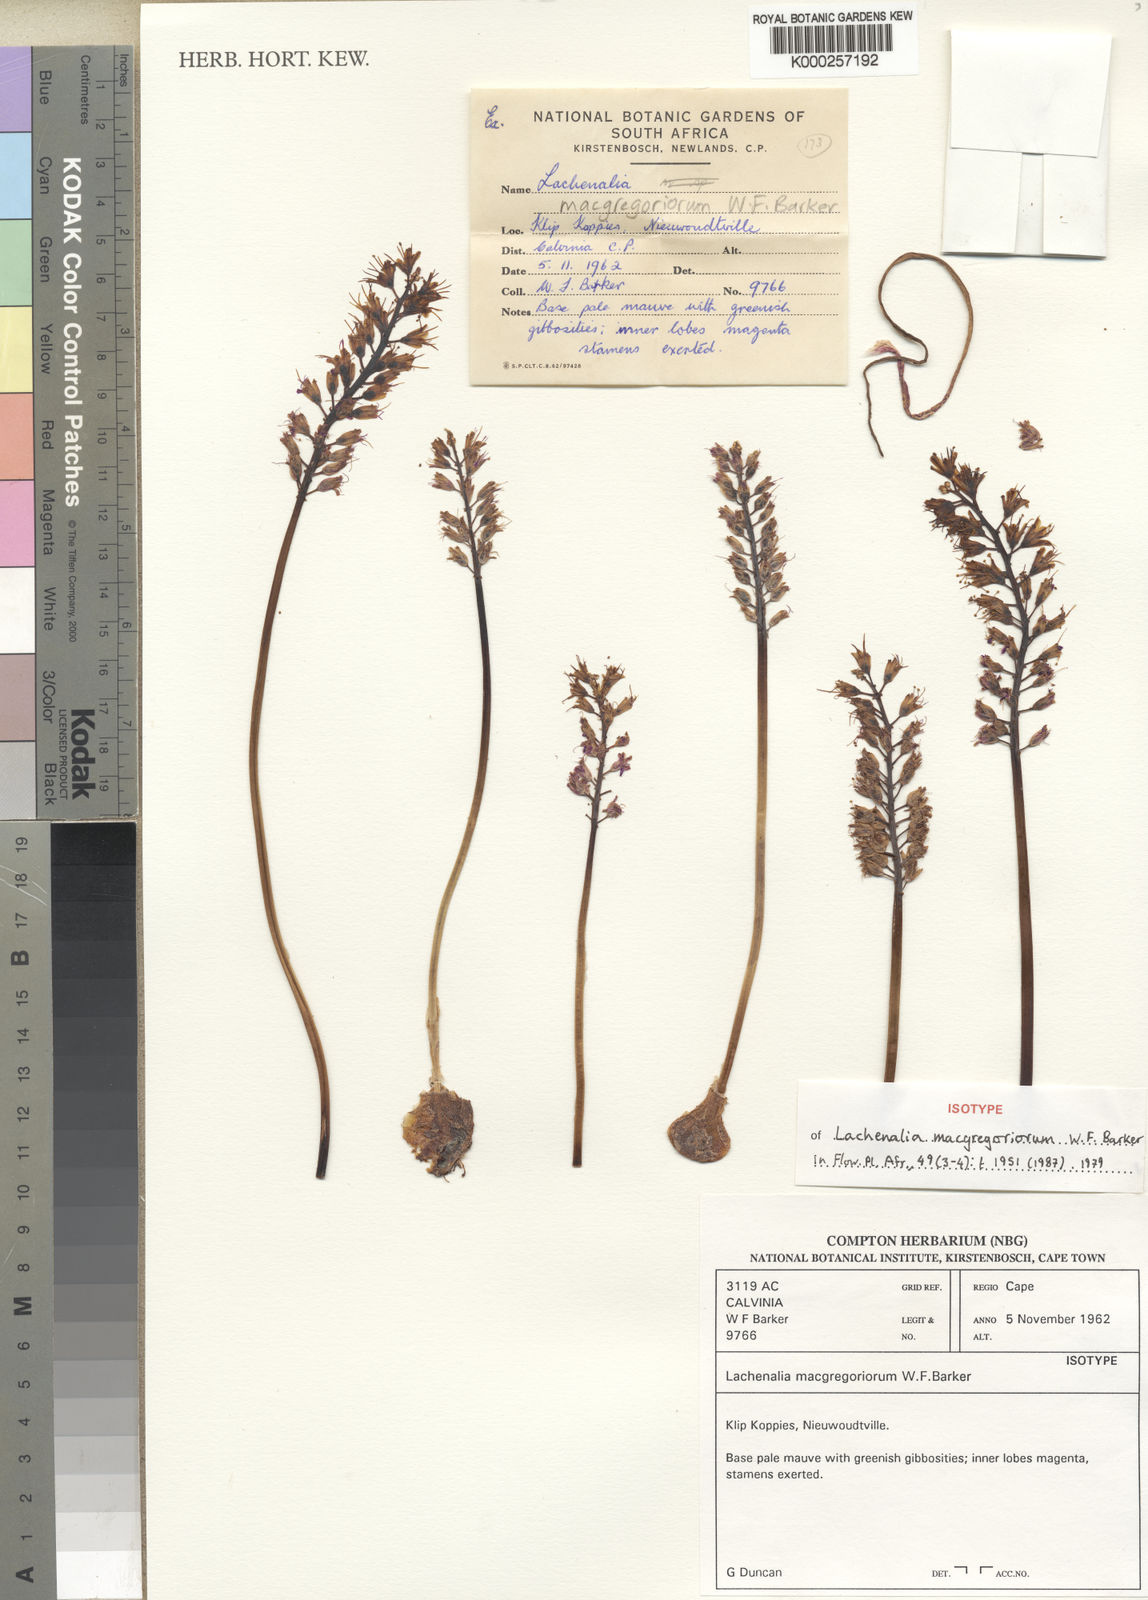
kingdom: Plantae
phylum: Tracheophyta
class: Liliopsida
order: Asparagales
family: Asparagaceae
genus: Lachenalia
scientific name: Lachenalia macgregoriorum
